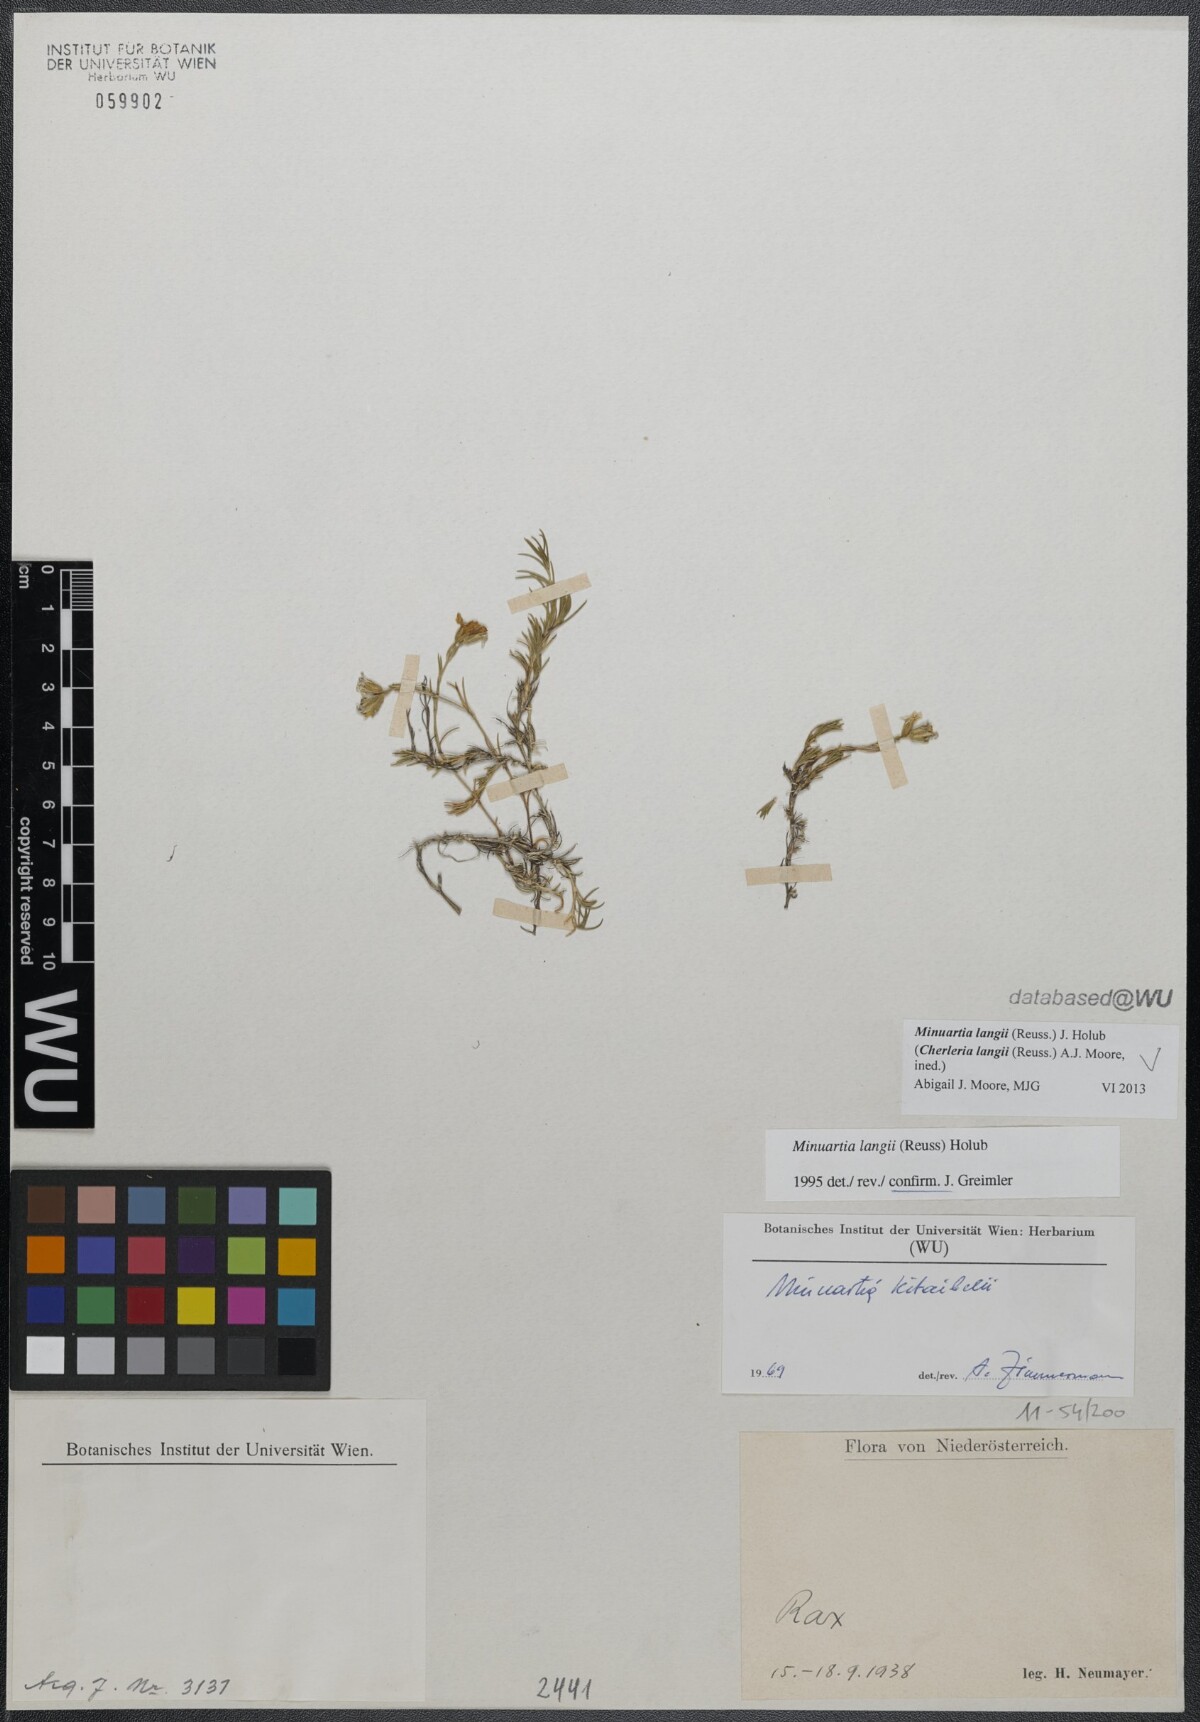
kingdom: Plantae
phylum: Tracheophyta
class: Magnoliopsida
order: Caryophyllales
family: Caryophyllaceae
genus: Cherleria
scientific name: Cherleria langii
